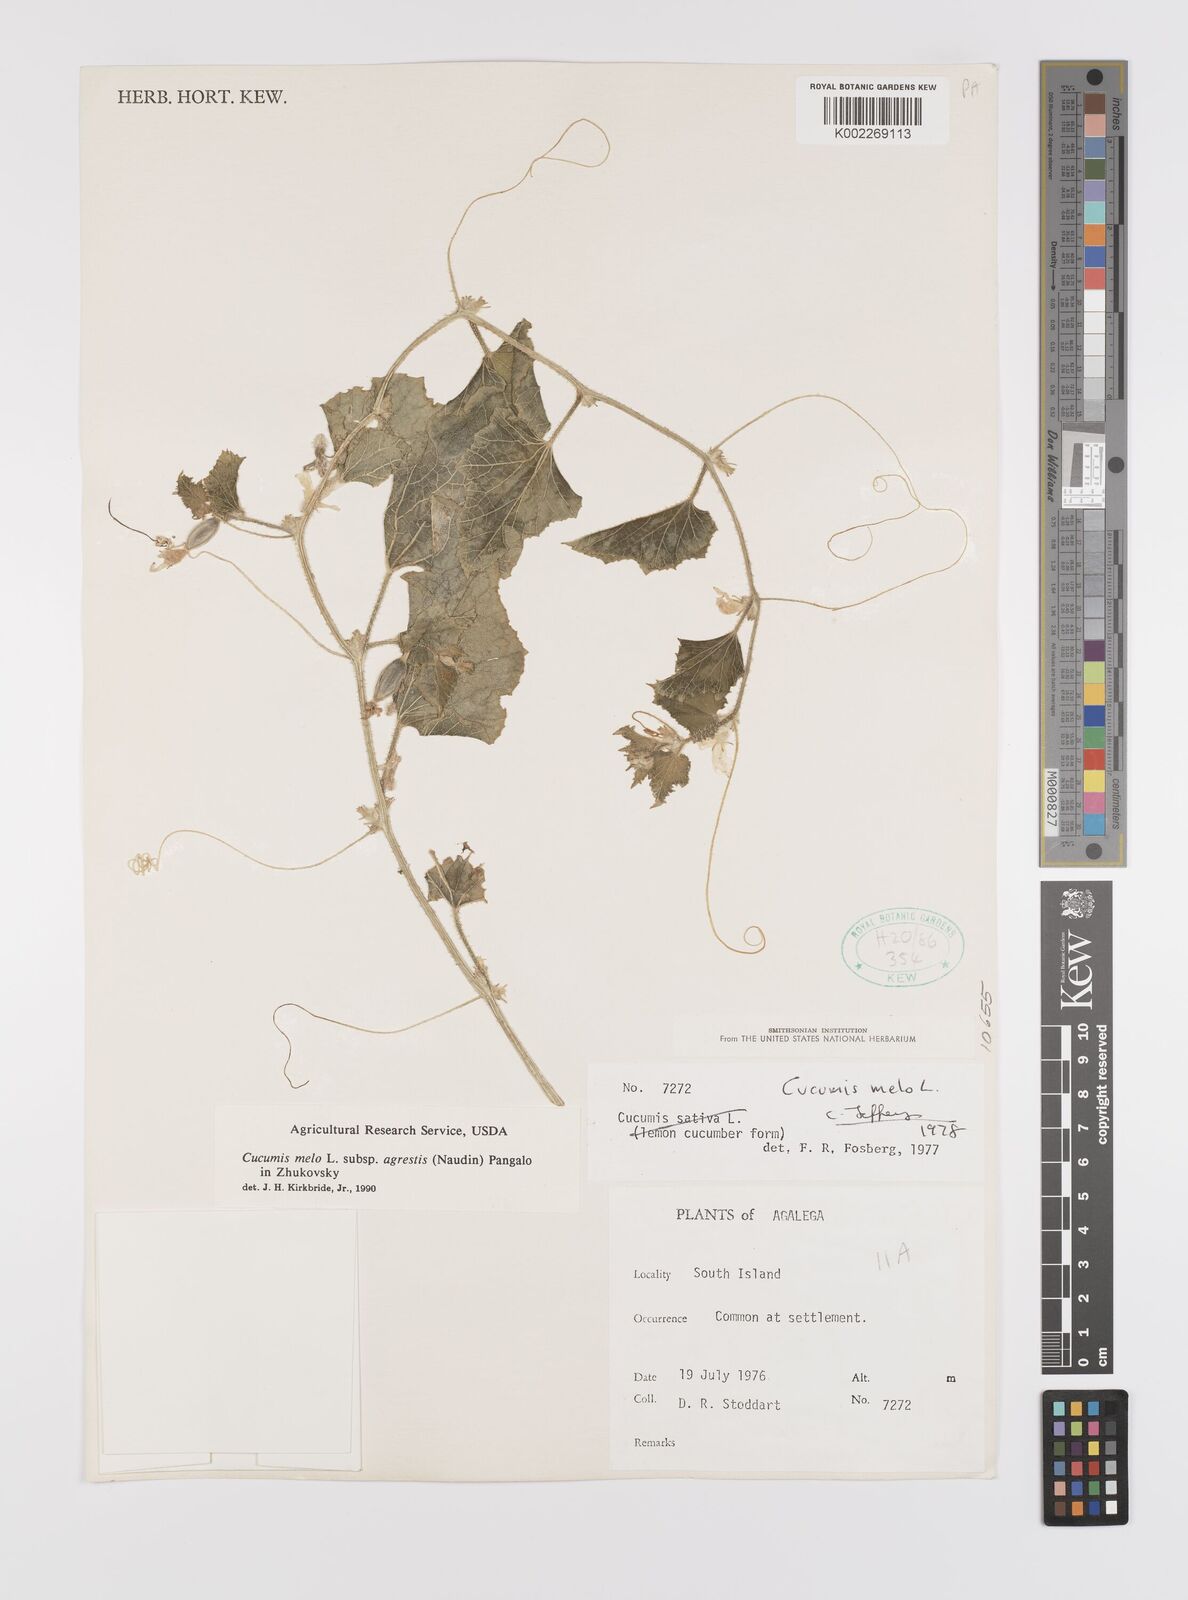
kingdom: Plantae
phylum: Tracheophyta
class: Magnoliopsida
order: Cucurbitales
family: Cucurbitaceae
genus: Cucumis
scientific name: Cucumis melo
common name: Melon
